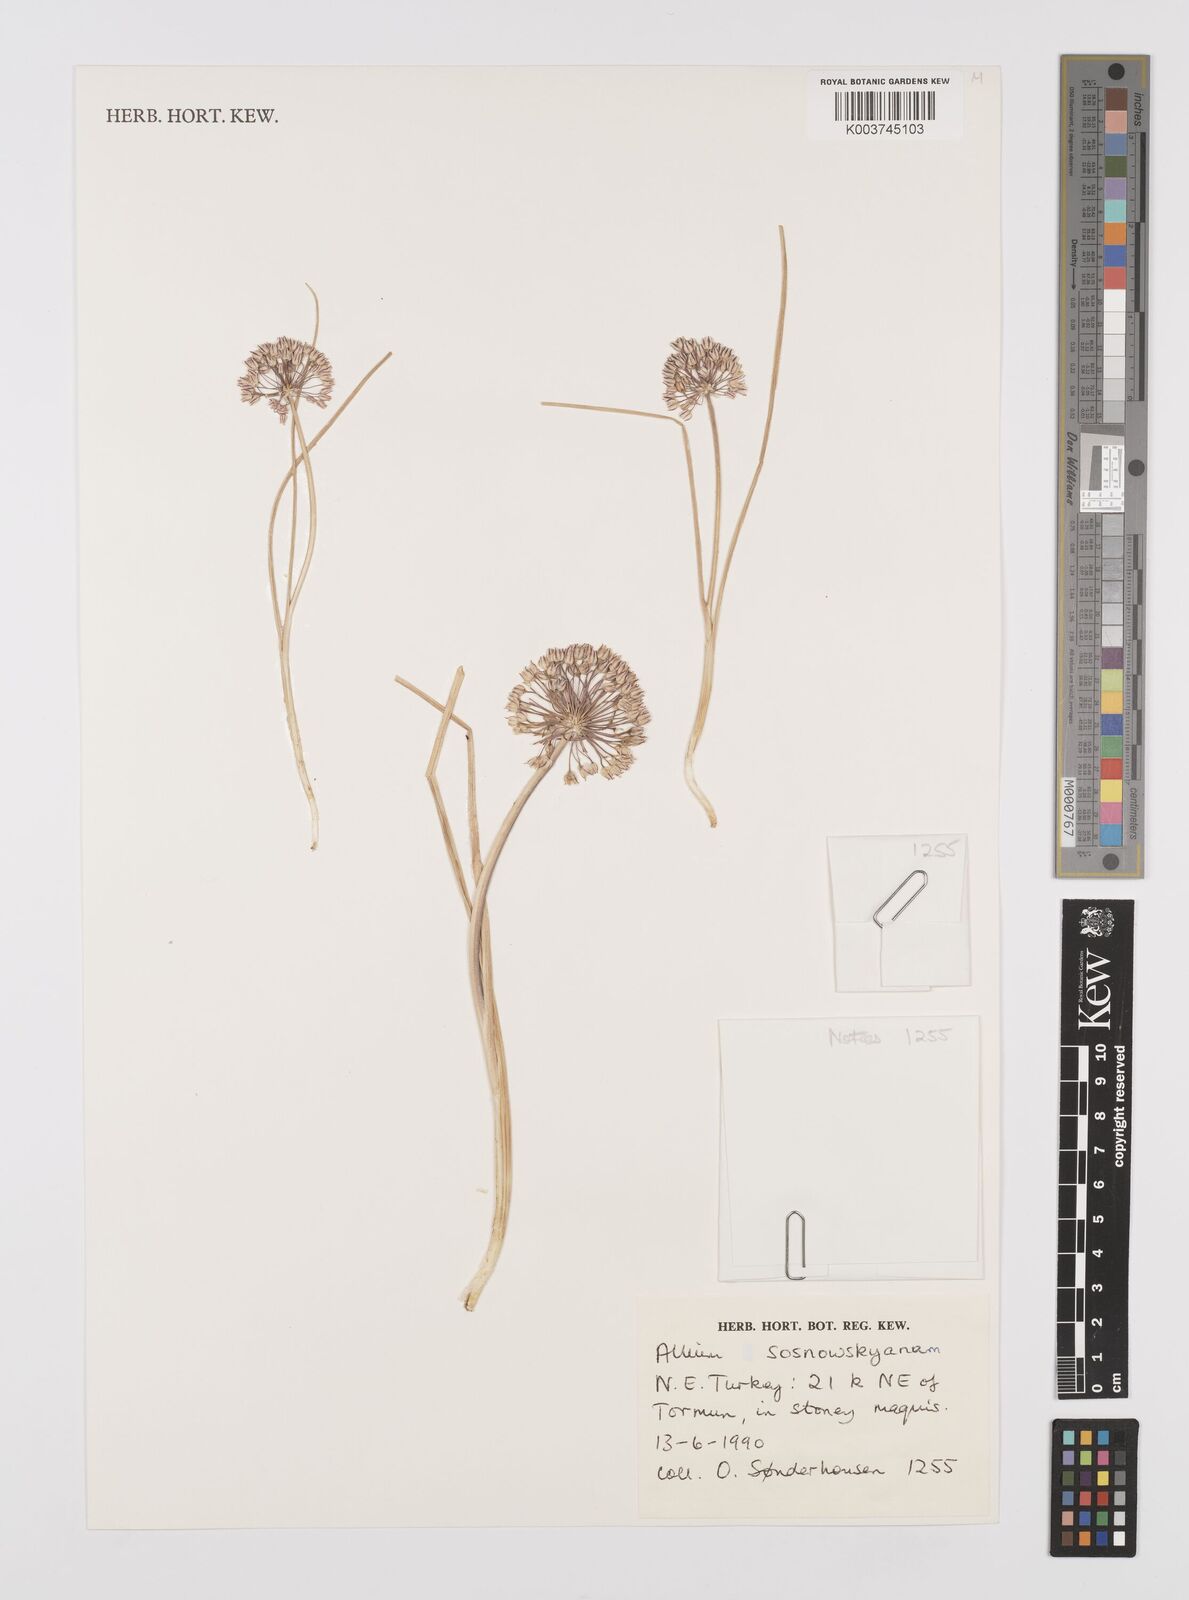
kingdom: Plantae
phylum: Tracheophyta
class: Liliopsida
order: Asparagales
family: Amaryllidaceae
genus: Allium
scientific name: Allium sosnovskyanum
